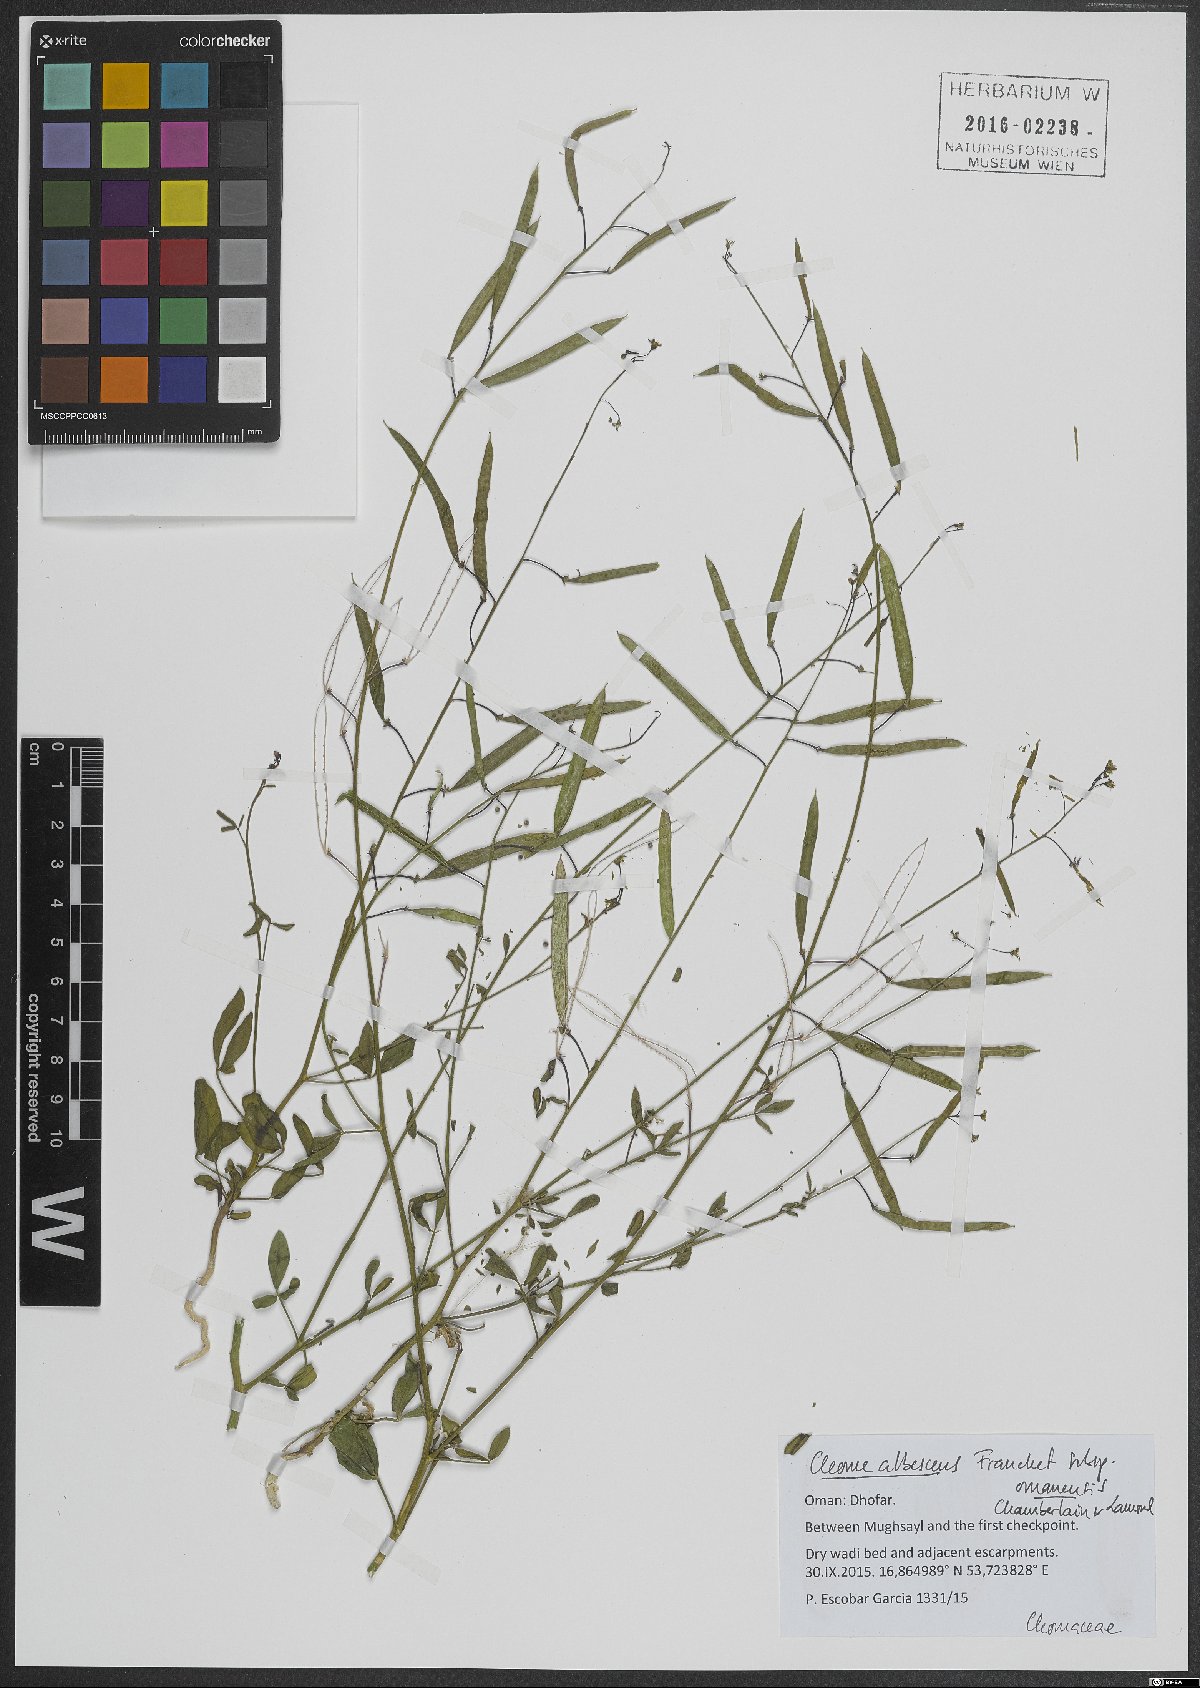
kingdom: Plantae
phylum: Tracheophyta
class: Magnoliopsida
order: Brassicales
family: Cleomaceae
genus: Cleome
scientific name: Cleome albescens
